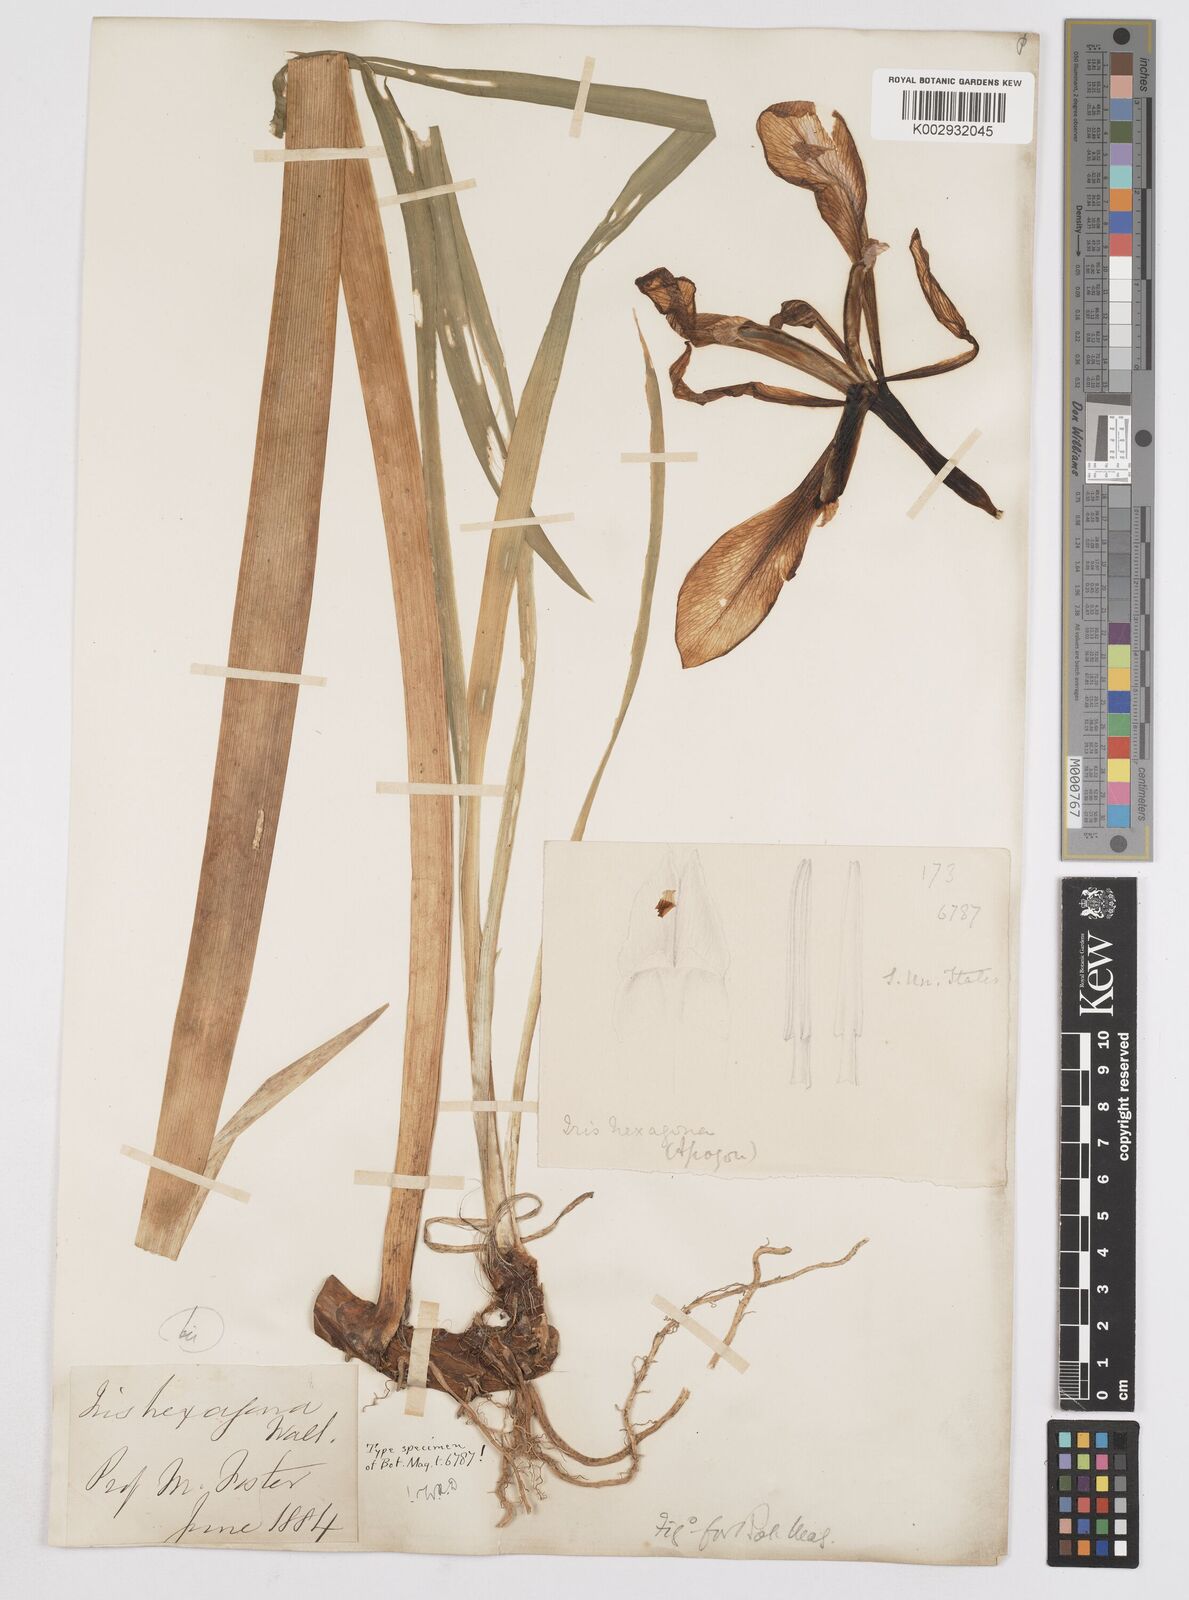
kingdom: Plantae
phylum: Tracheophyta
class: Liliopsida
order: Asparagales
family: Iridaceae
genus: Iris
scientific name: Iris hexagona
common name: Carolina iris
